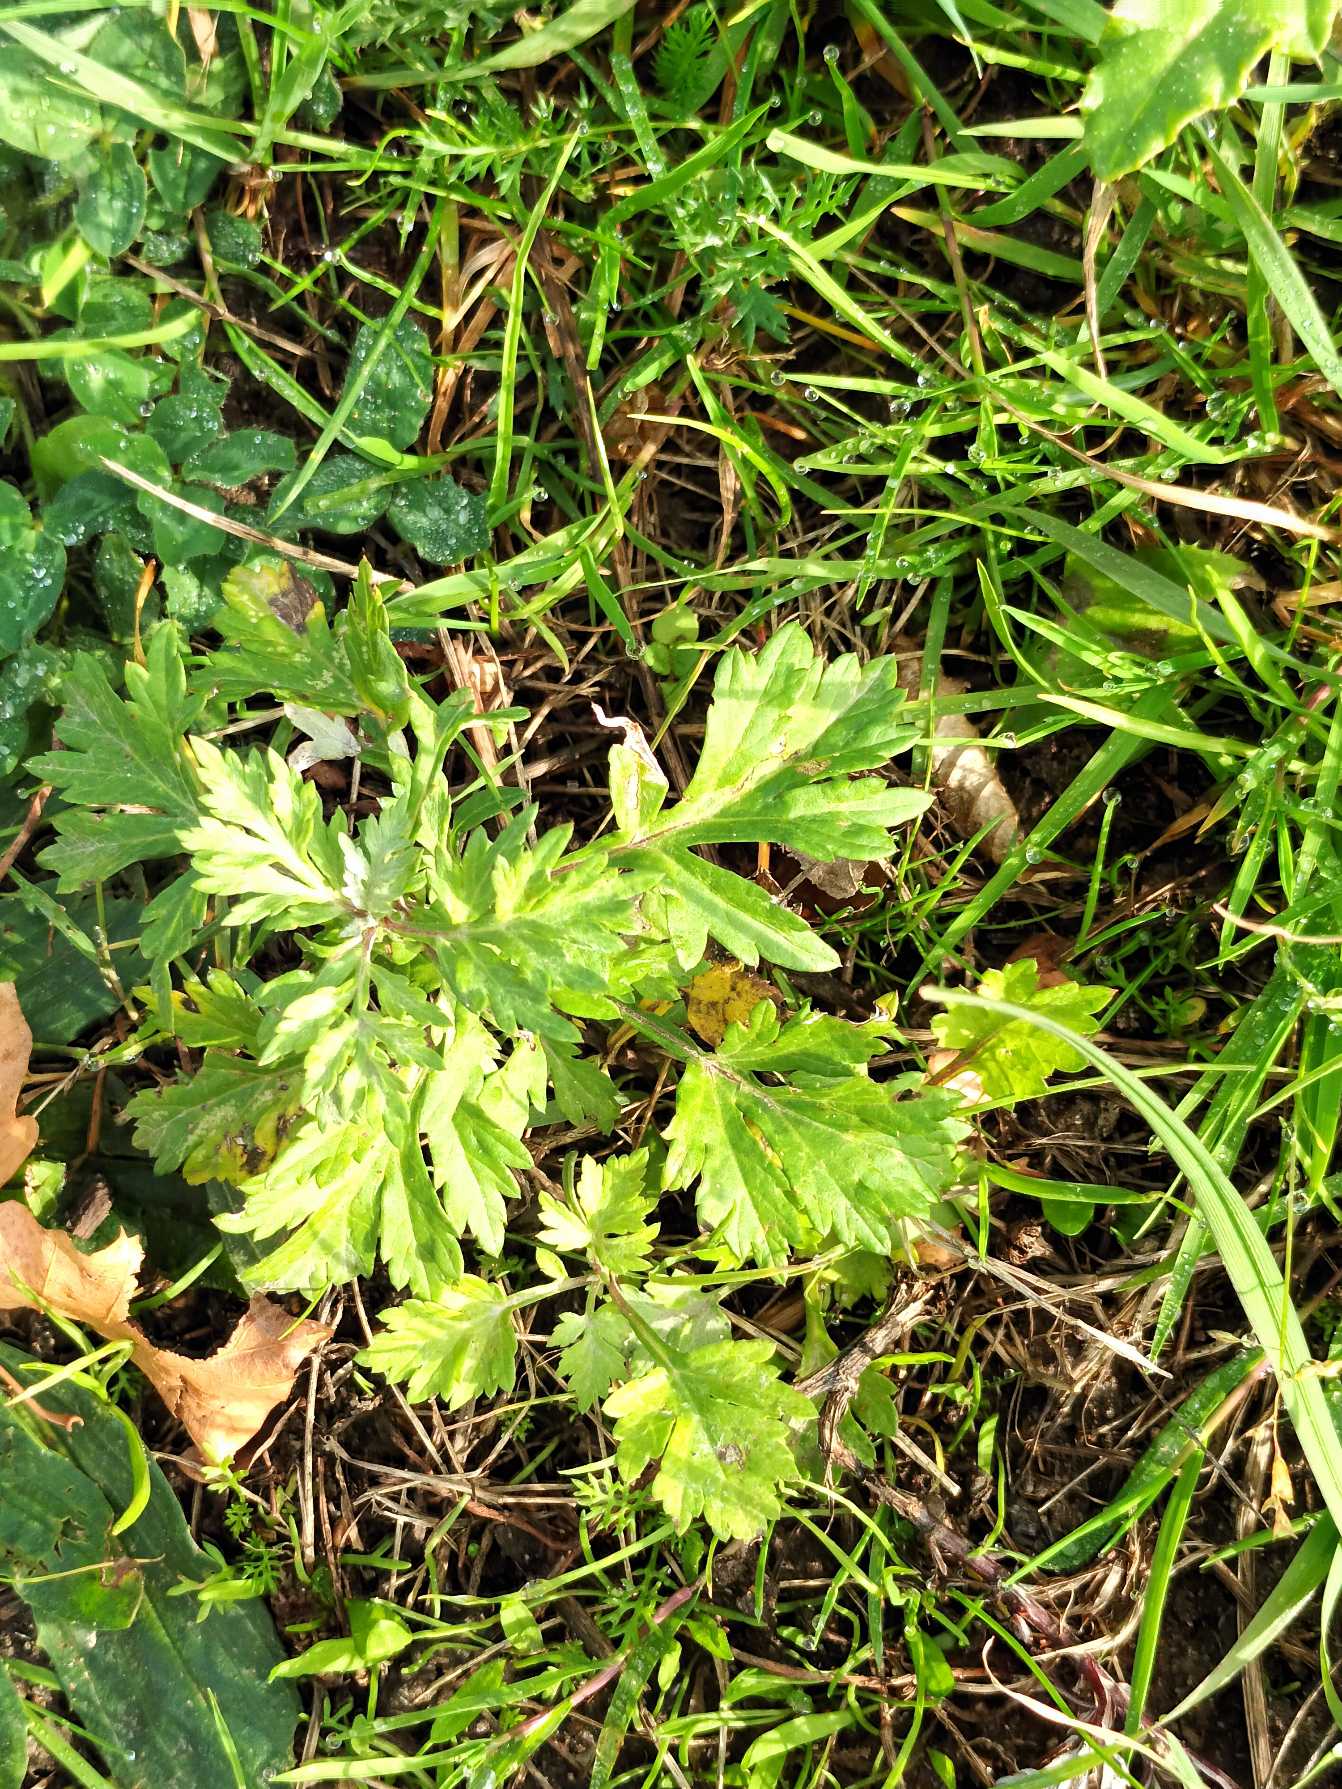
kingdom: Plantae
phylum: Tracheophyta
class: Magnoliopsida
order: Asterales
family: Asteraceae
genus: Artemisia
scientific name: Artemisia vulgaris
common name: Grå-bynke
